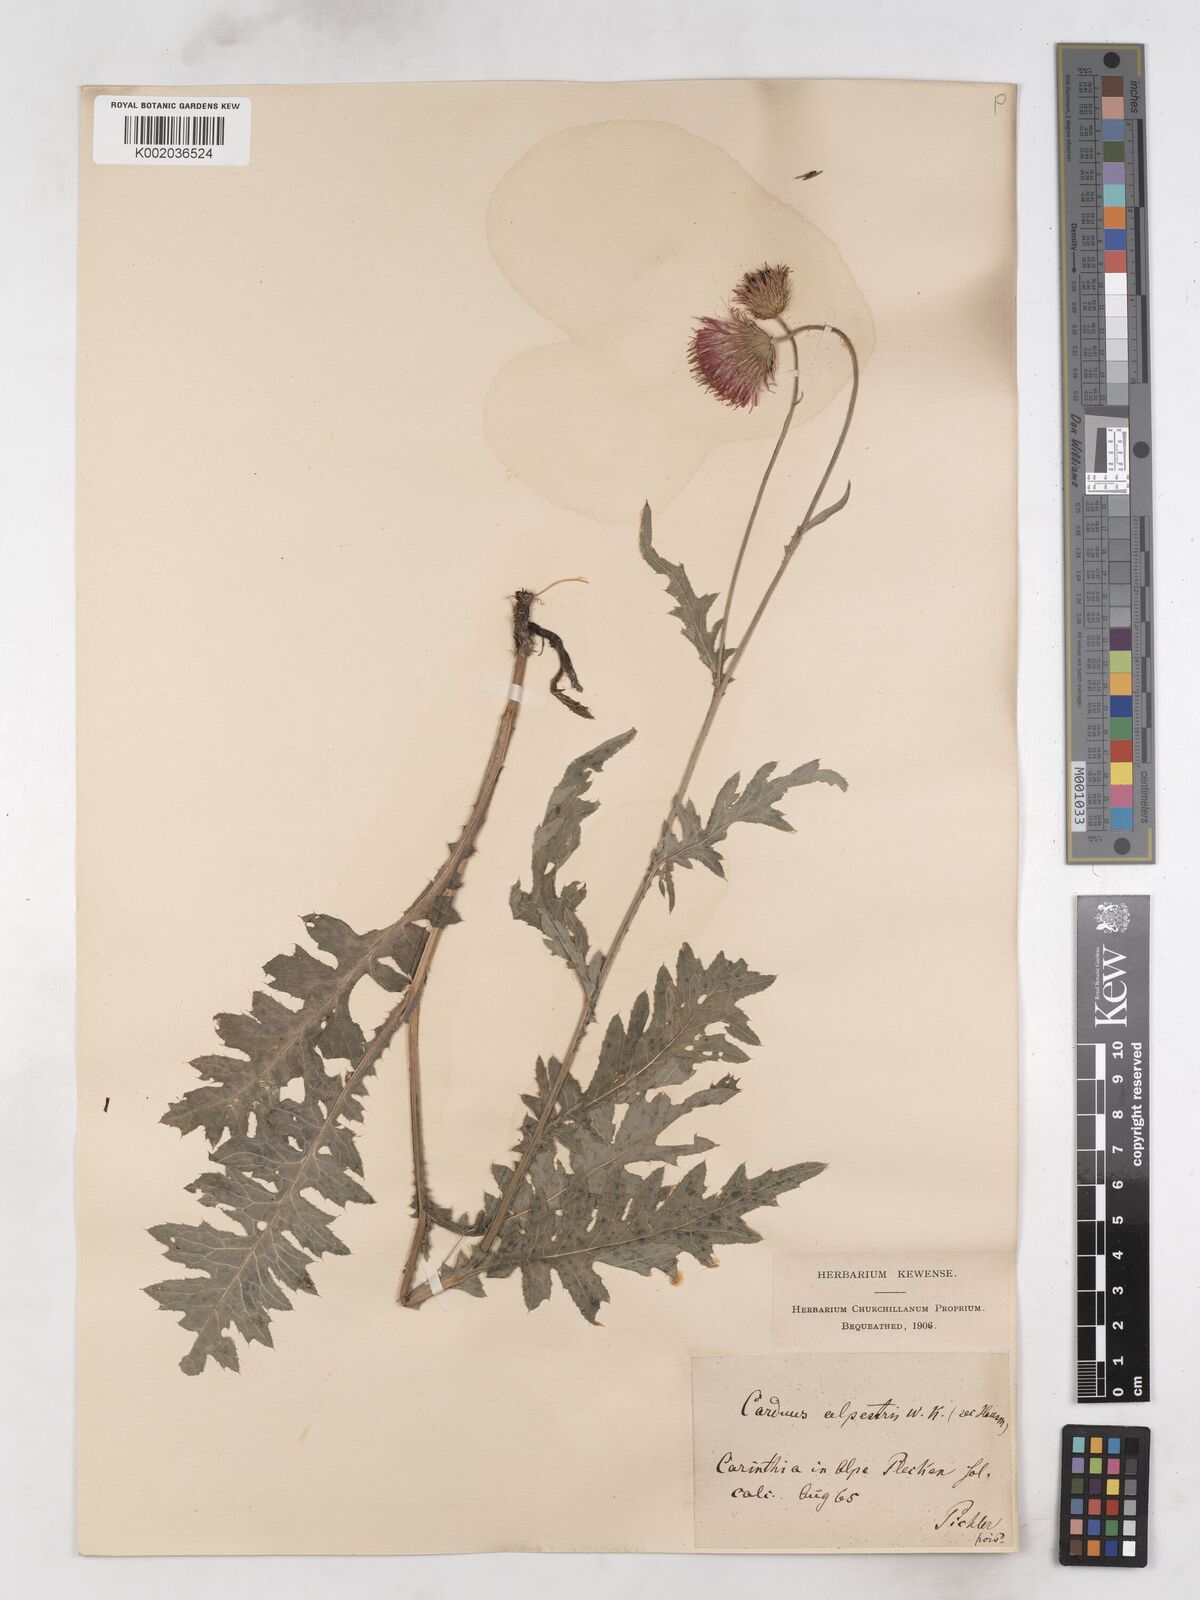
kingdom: Plantae
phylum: Tracheophyta
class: Magnoliopsida
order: Asterales
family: Asteraceae
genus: Carduus
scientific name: Carduus carduelis
